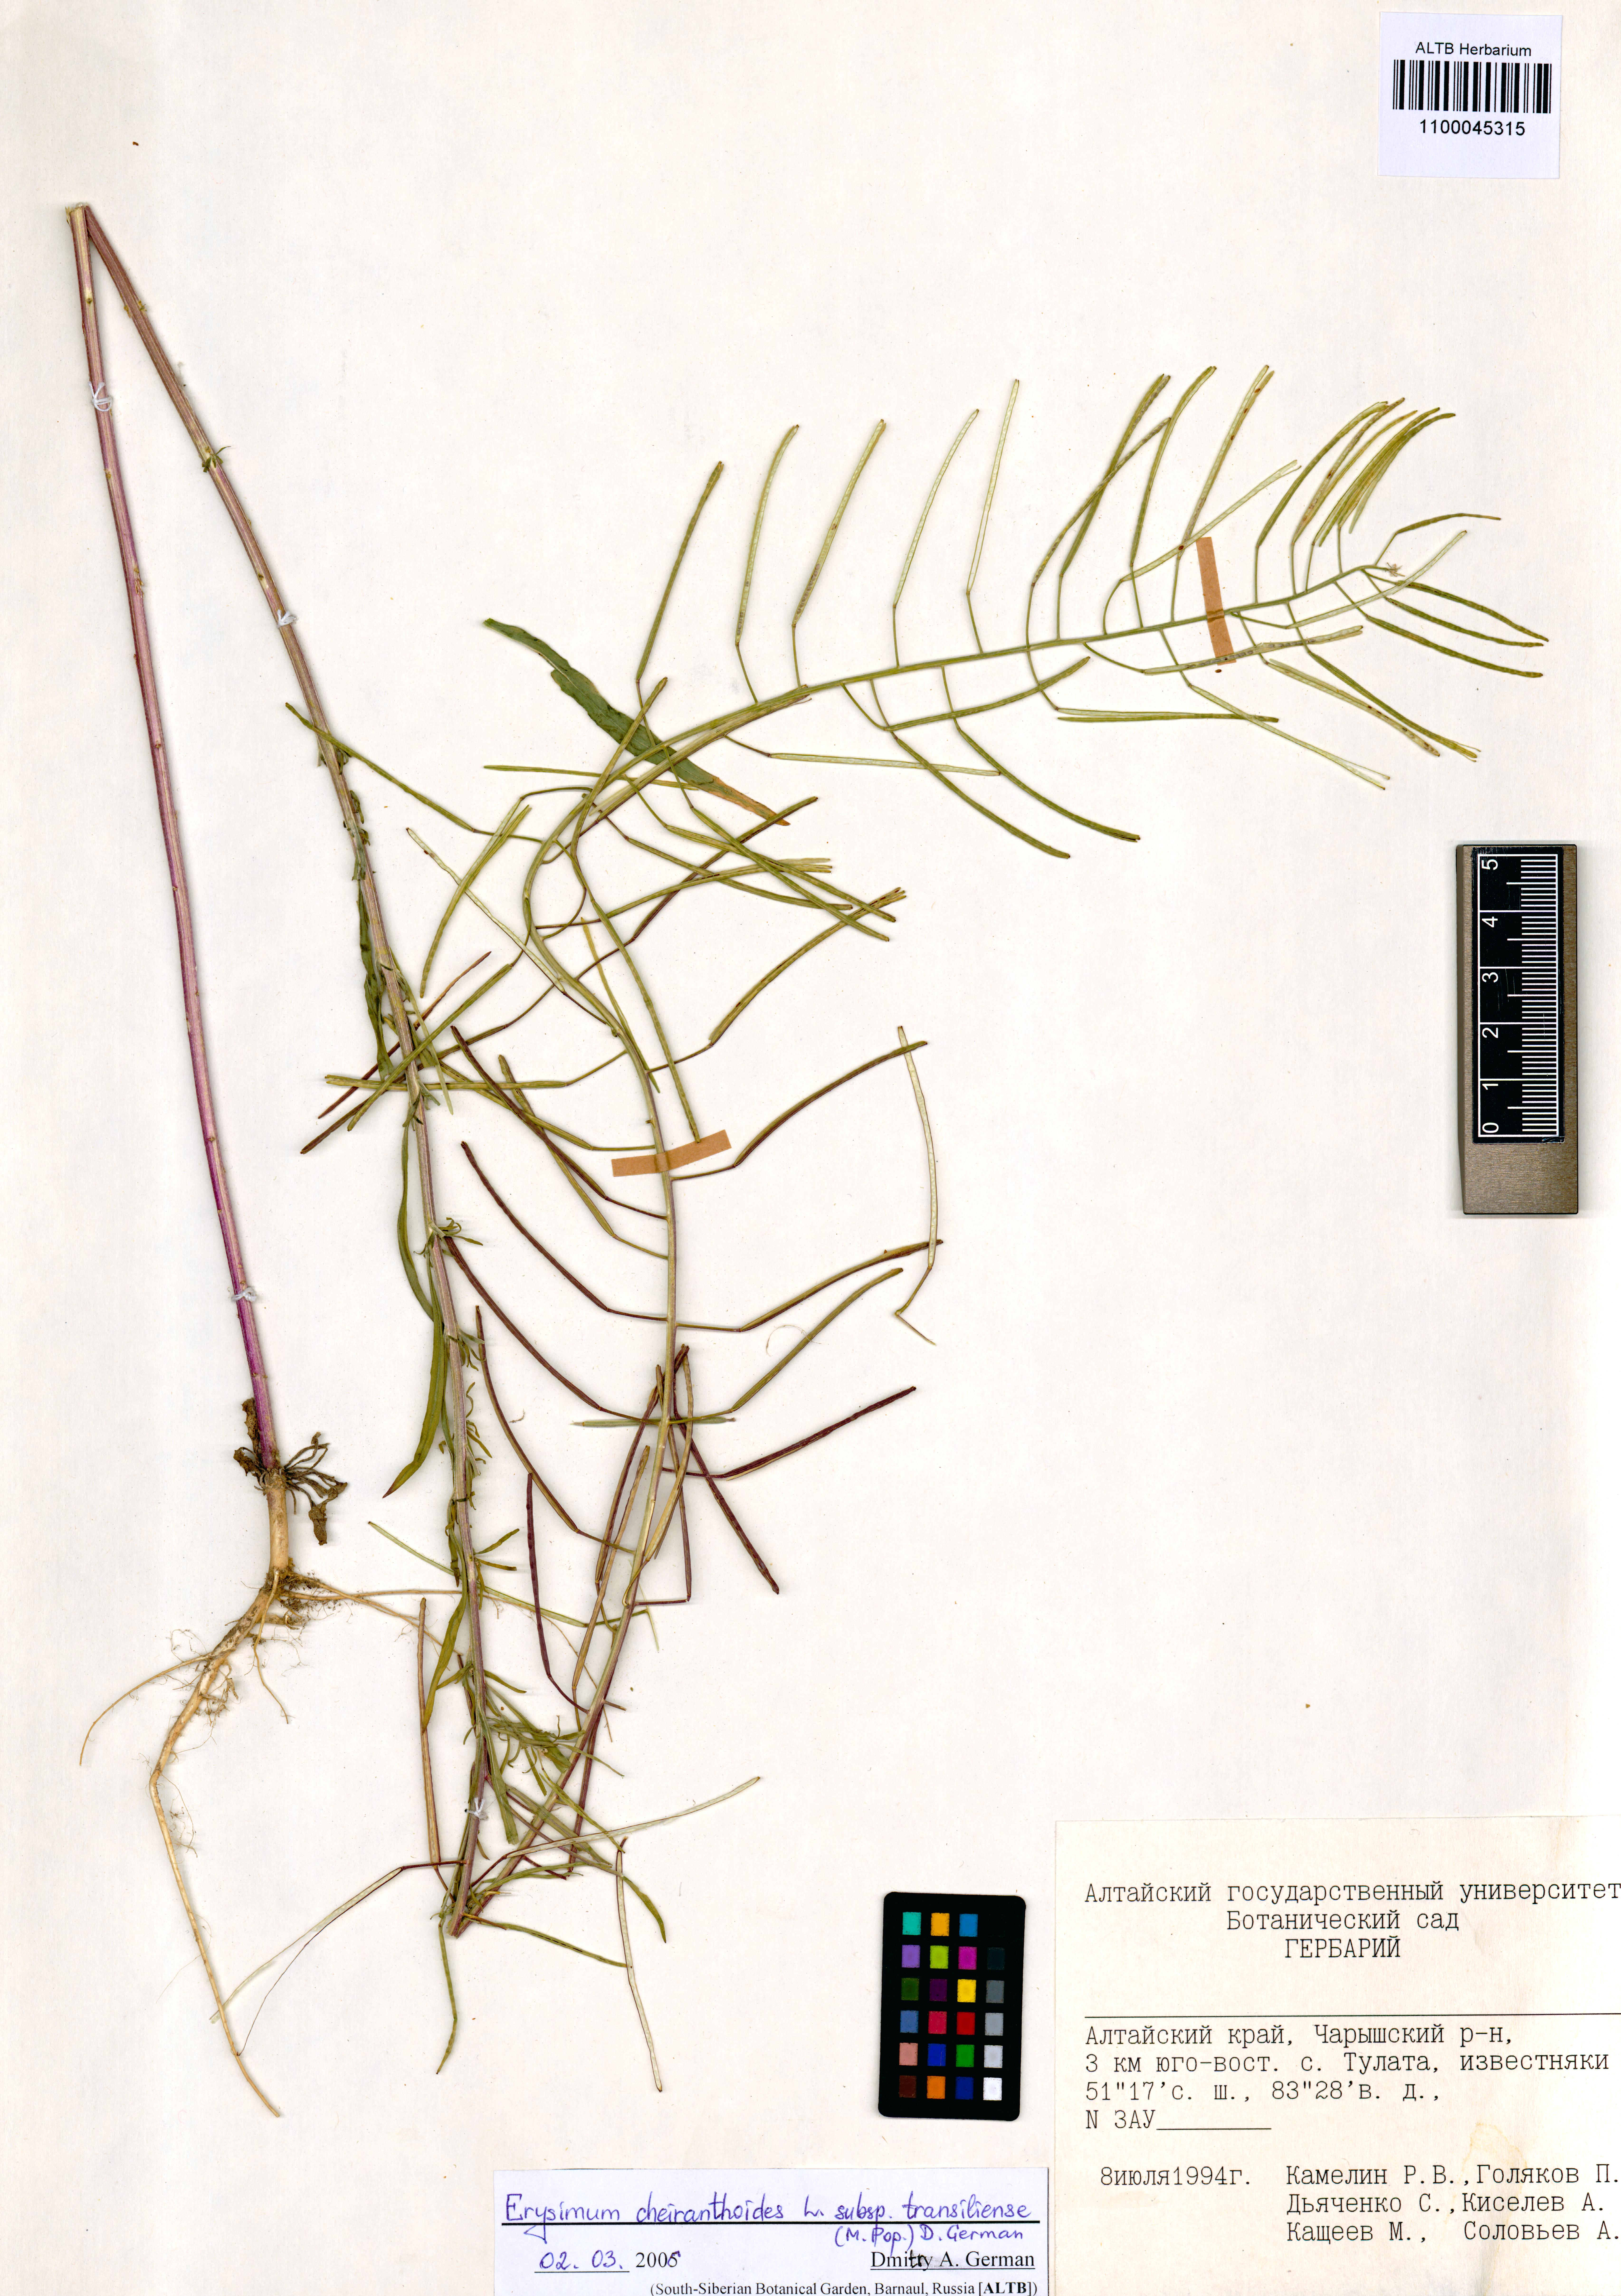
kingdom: Plantae
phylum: Tracheophyta
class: Magnoliopsida
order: Brassicales
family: Brassicaceae
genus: Erysimum
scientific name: Erysimum virgatum
